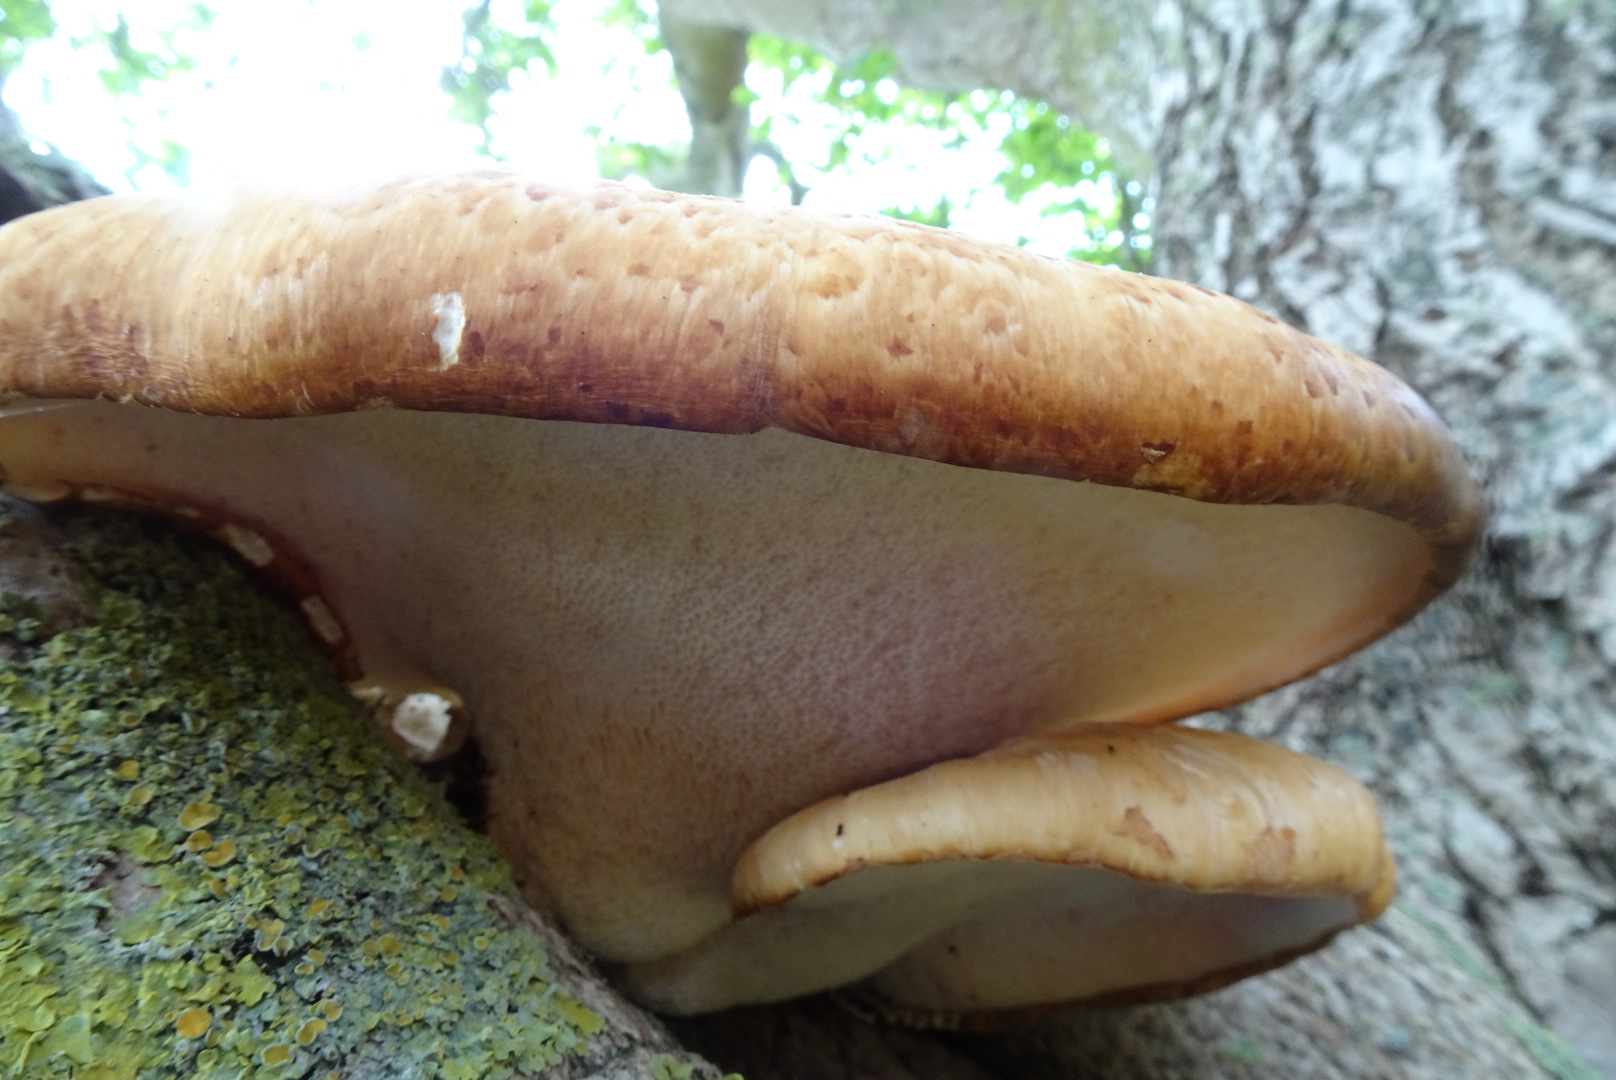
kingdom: Fungi
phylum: Basidiomycota
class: Agaricomycetes
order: Polyporales
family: Polyporaceae
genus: Cerioporus
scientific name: Cerioporus squamosus
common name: skællet stilkporesvamp
